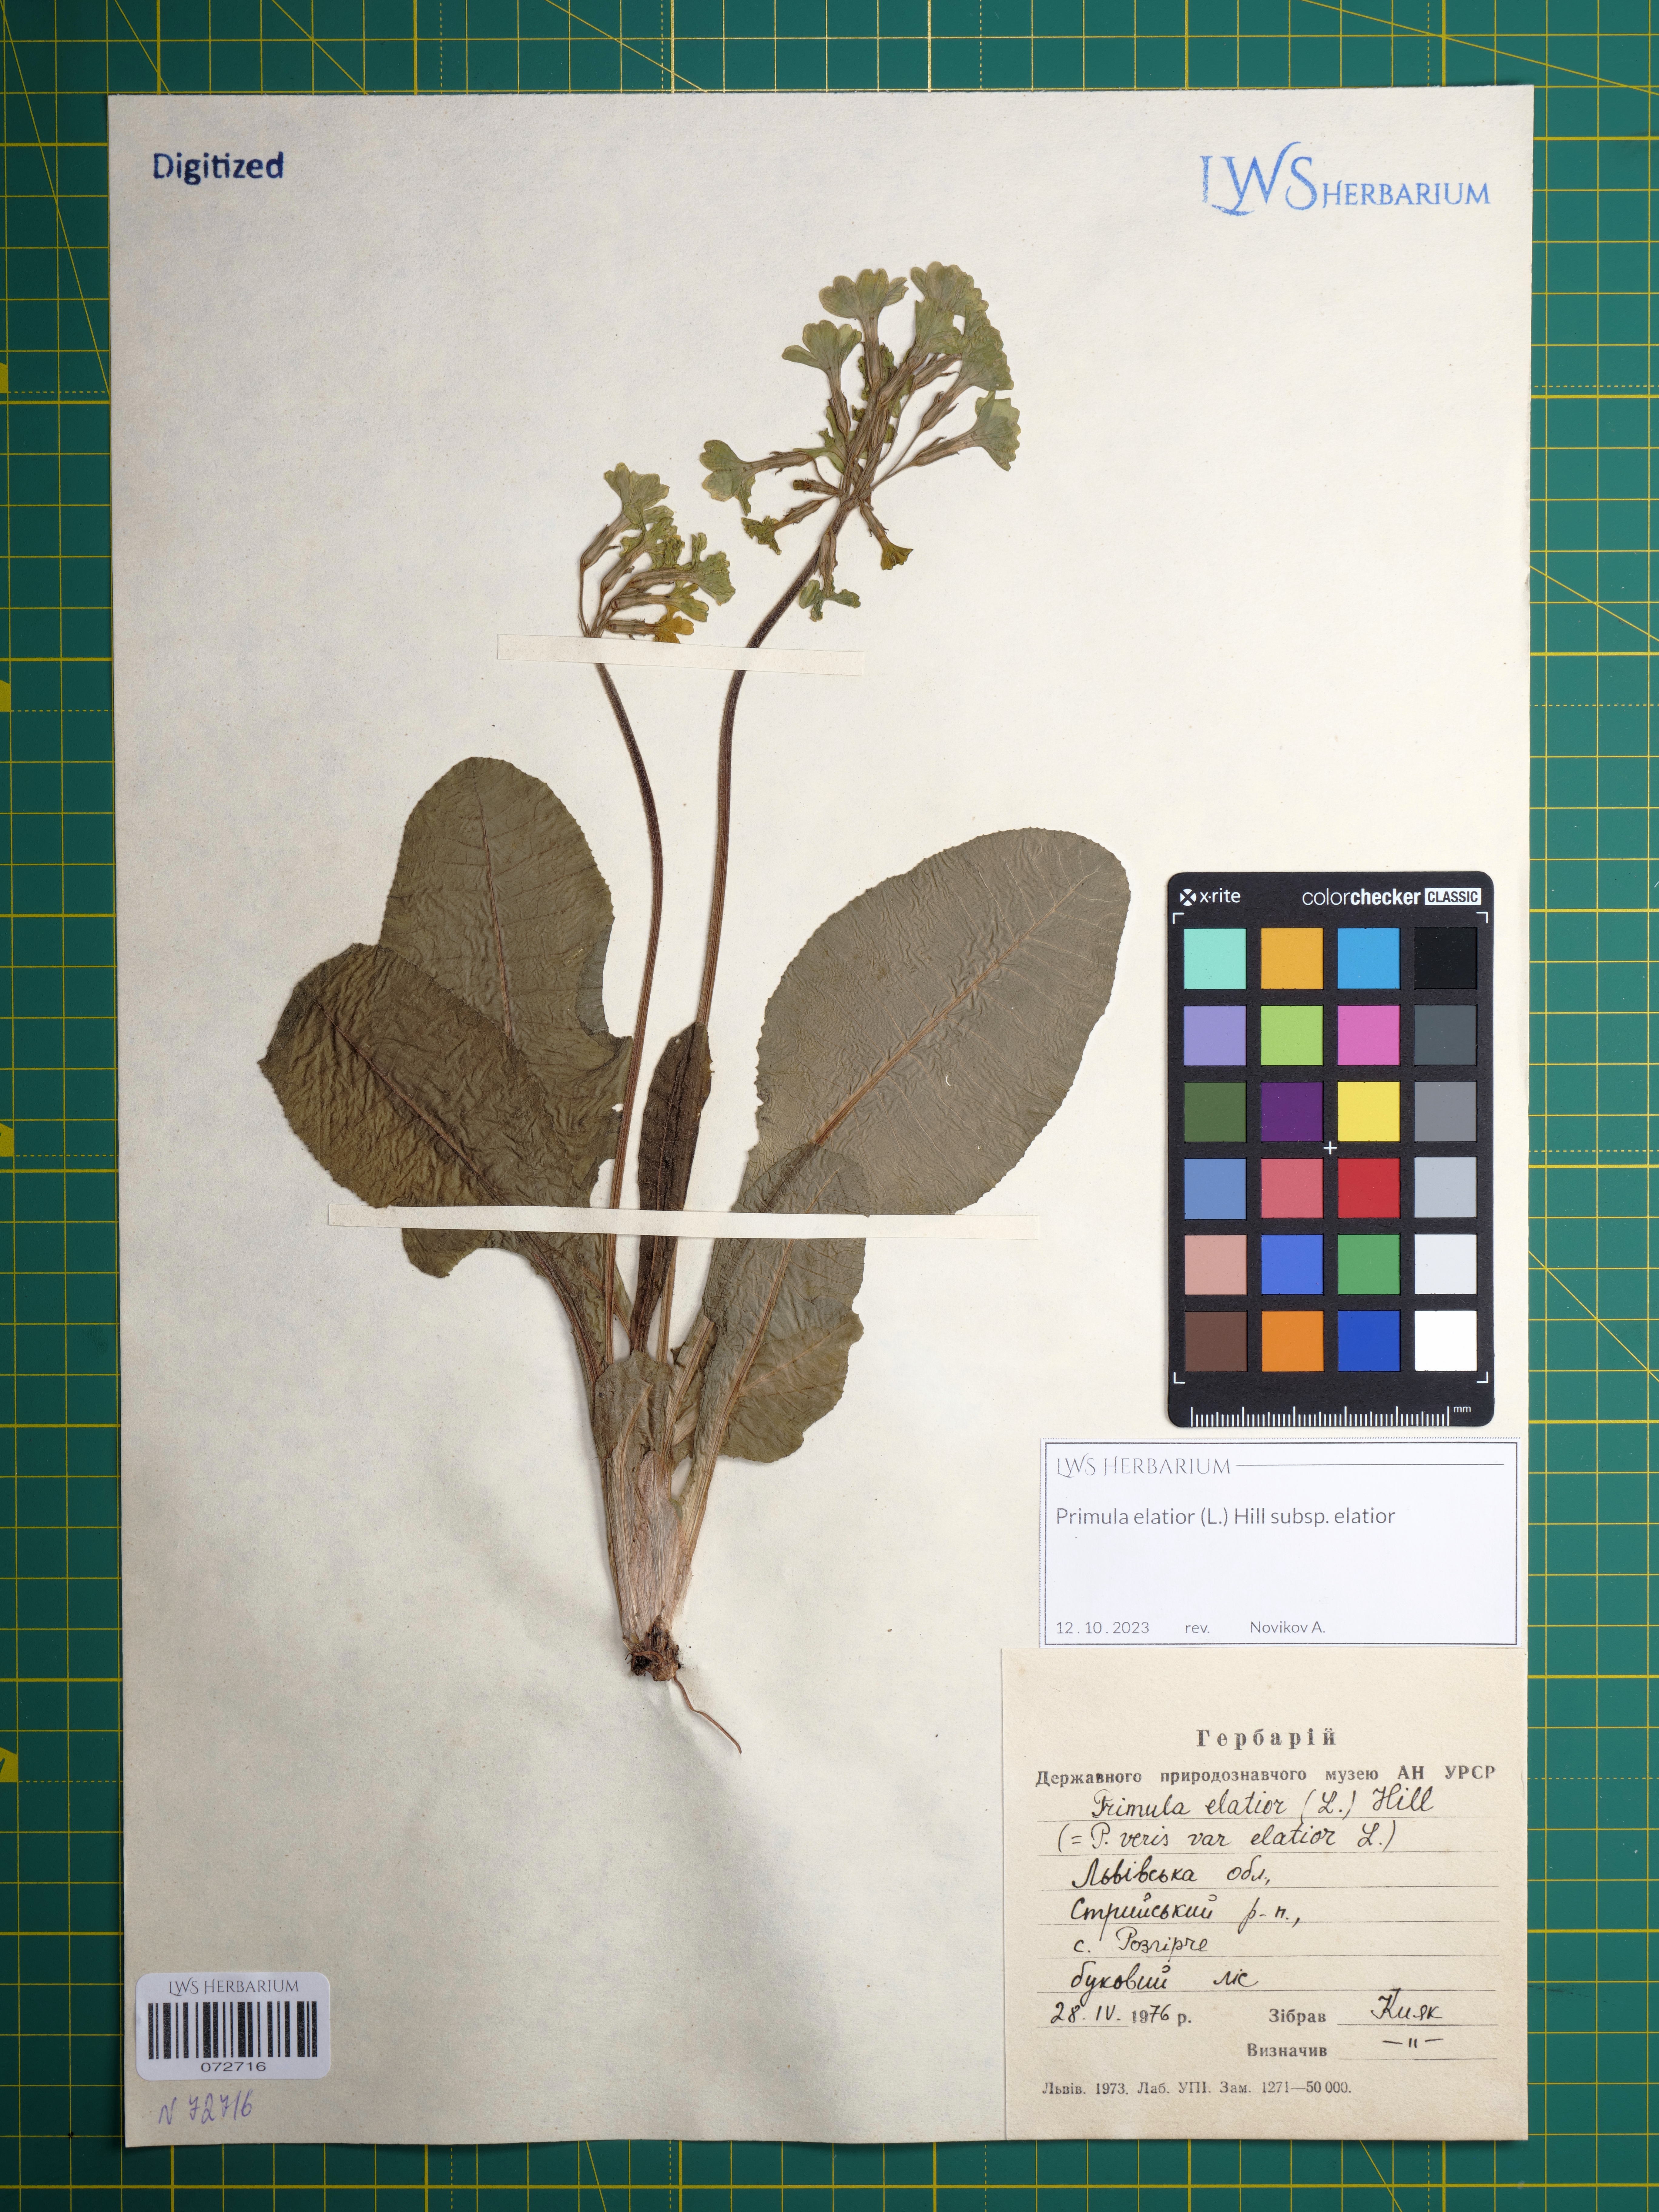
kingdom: Plantae
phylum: Tracheophyta
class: Magnoliopsida
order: Ericales
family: Primulaceae
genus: Primula
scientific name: Primula elatior
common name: Oxlip
